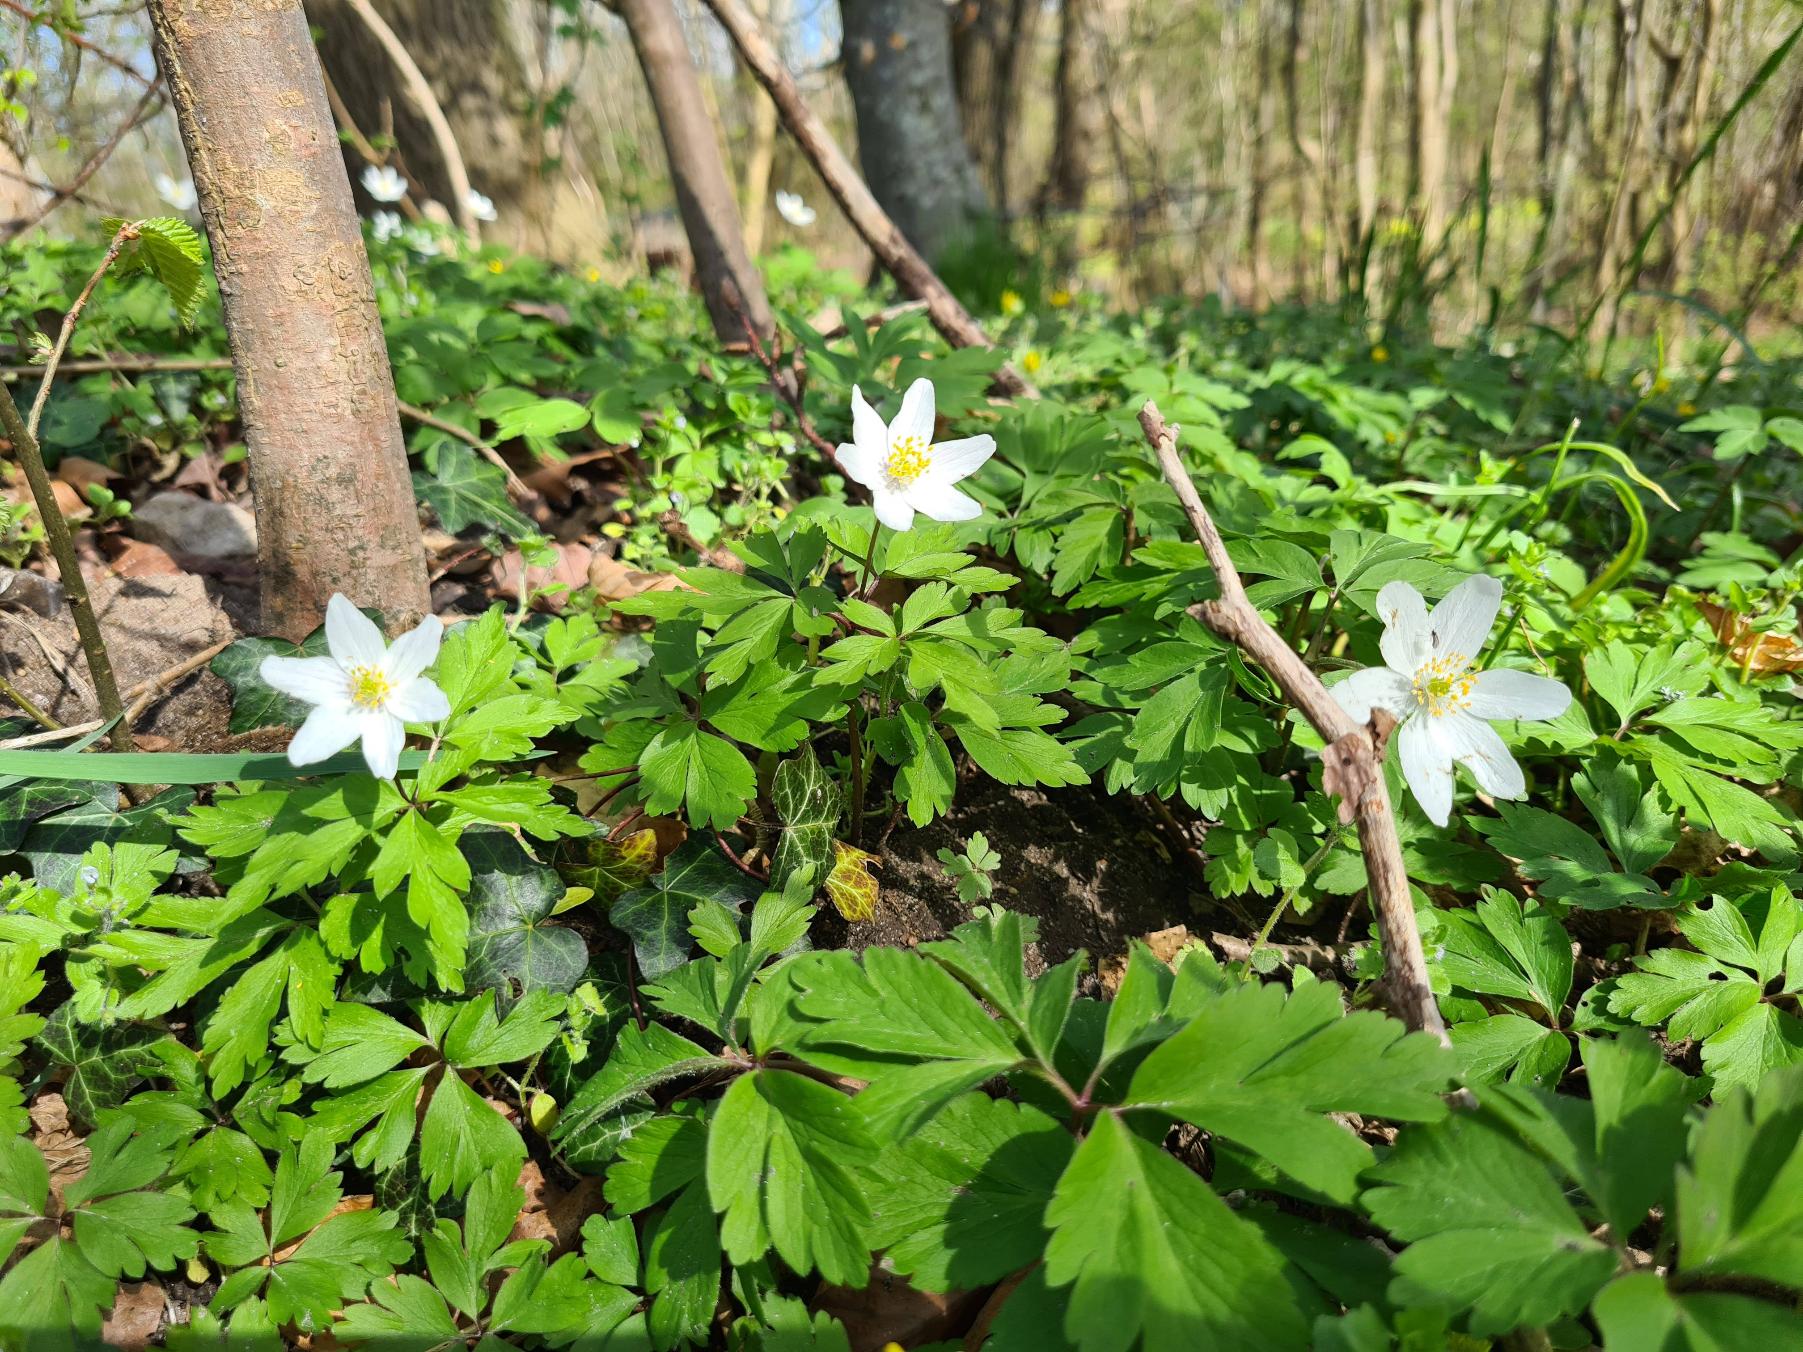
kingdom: Plantae
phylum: Tracheophyta
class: Magnoliopsida
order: Ranunculales
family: Ranunculaceae
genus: Anemone
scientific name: Anemone nemorosa
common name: Hvid anemone
